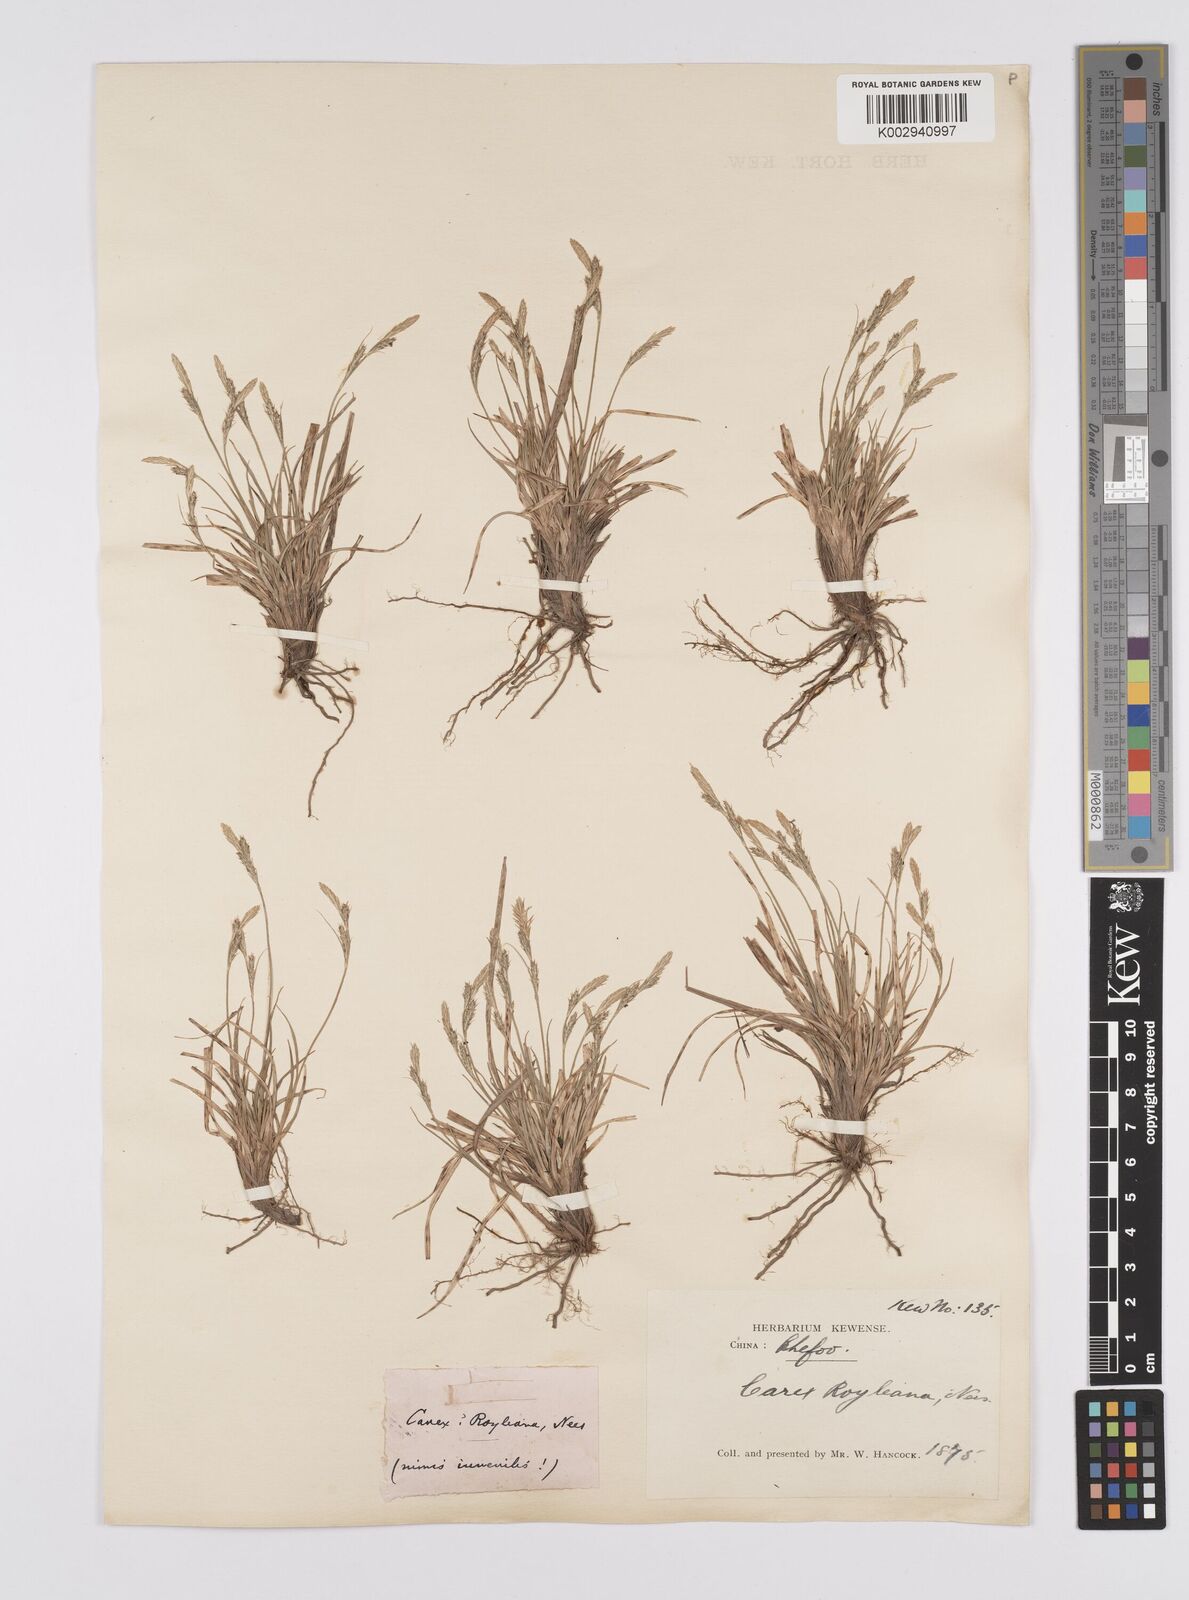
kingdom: Plantae
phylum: Tracheophyta
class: Liliopsida
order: Poales
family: Cyperaceae
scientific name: Cyperaceae
